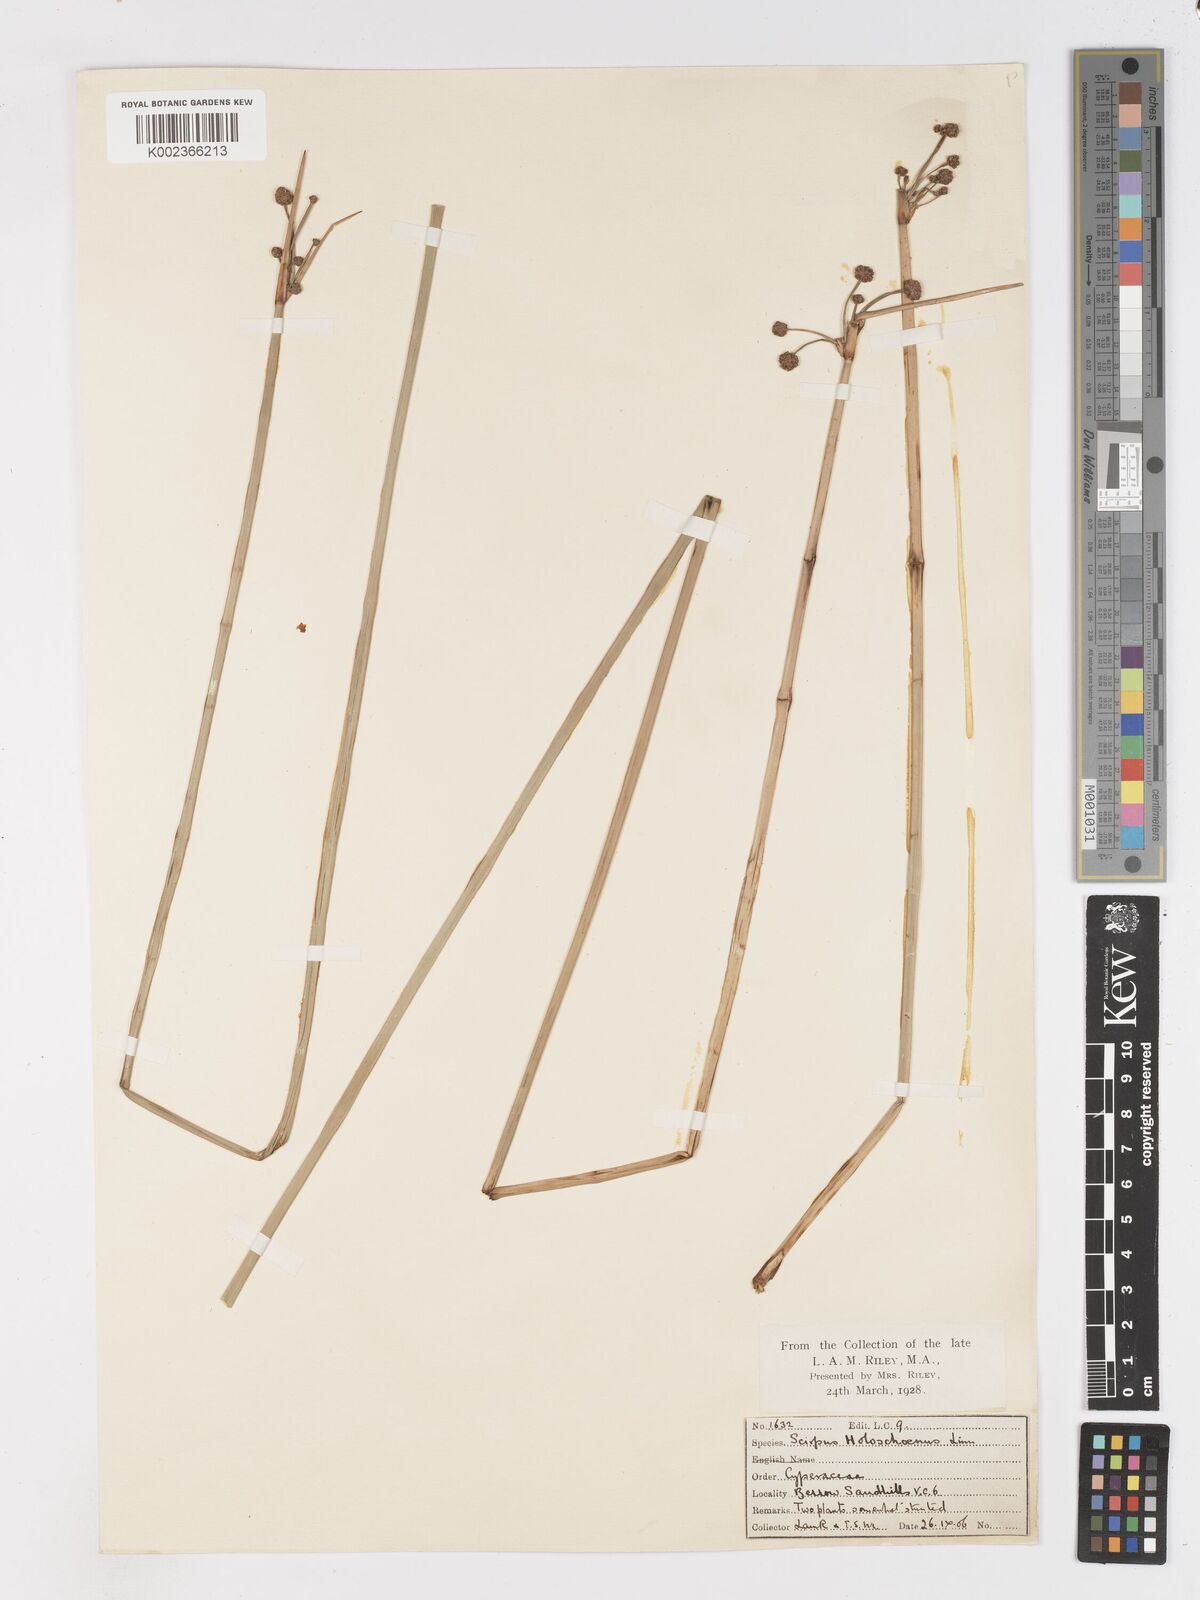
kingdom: Plantae
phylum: Tracheophyta
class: Liliopsida
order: Poales
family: Cyperaceae
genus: Scirpoides
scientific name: Scirpoides holoschoenus
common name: Round-headed club-rush
